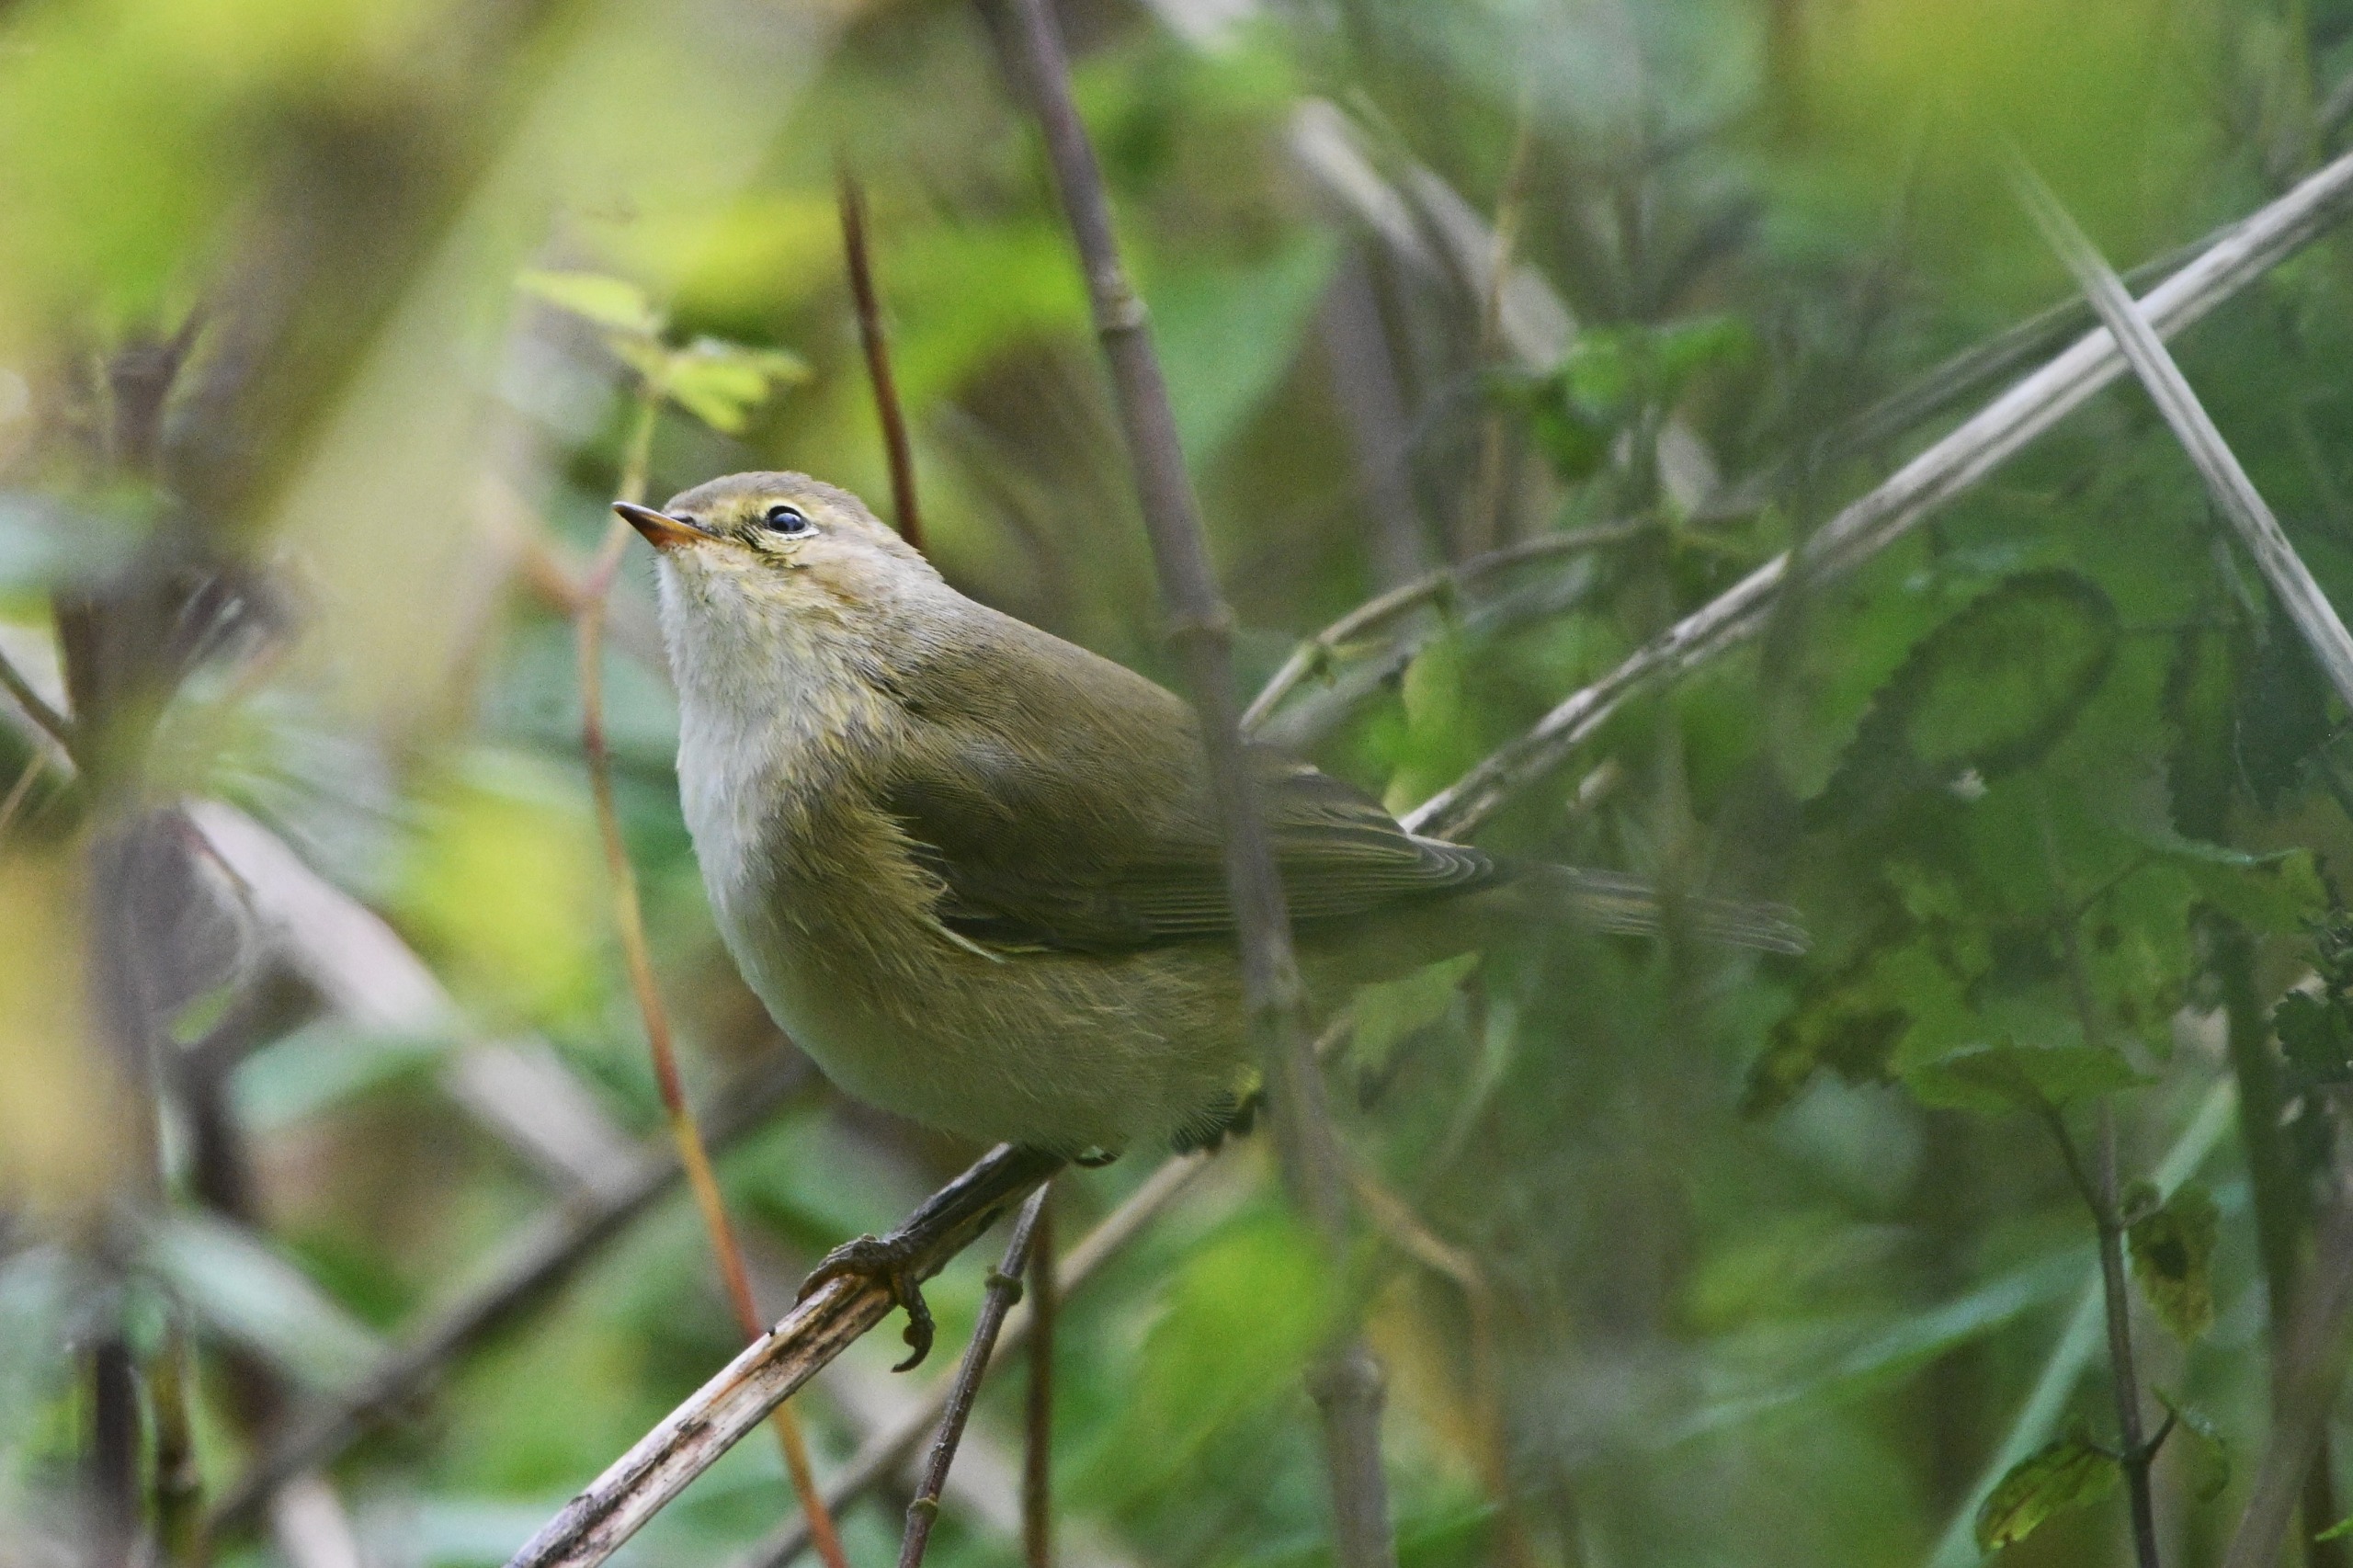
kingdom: Animalia
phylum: Chordata
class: Aves
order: Passeriformes
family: Phylloscopidae
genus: Phylloscopus
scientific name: Phylloscopus collybita
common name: Gransanger
